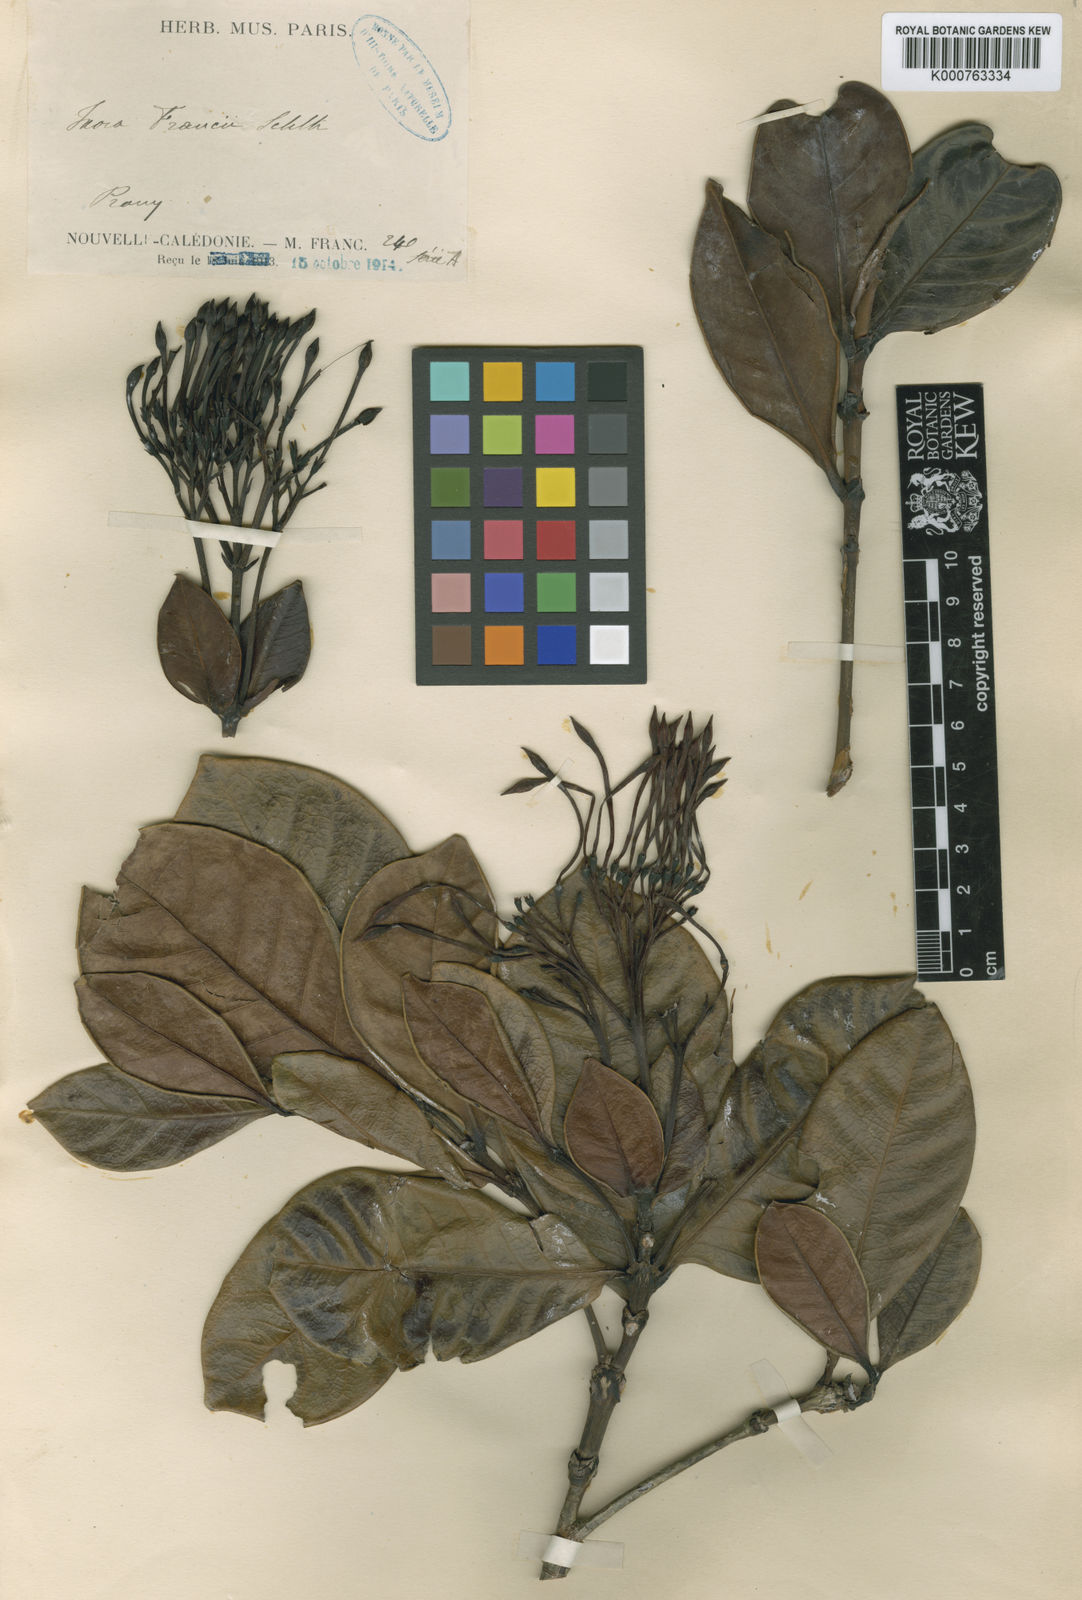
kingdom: Plantae
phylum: Tracheophyta
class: Magnoliopsida
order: Gentianales
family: Rubiaceae
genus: Ixora
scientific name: Ixora francii
